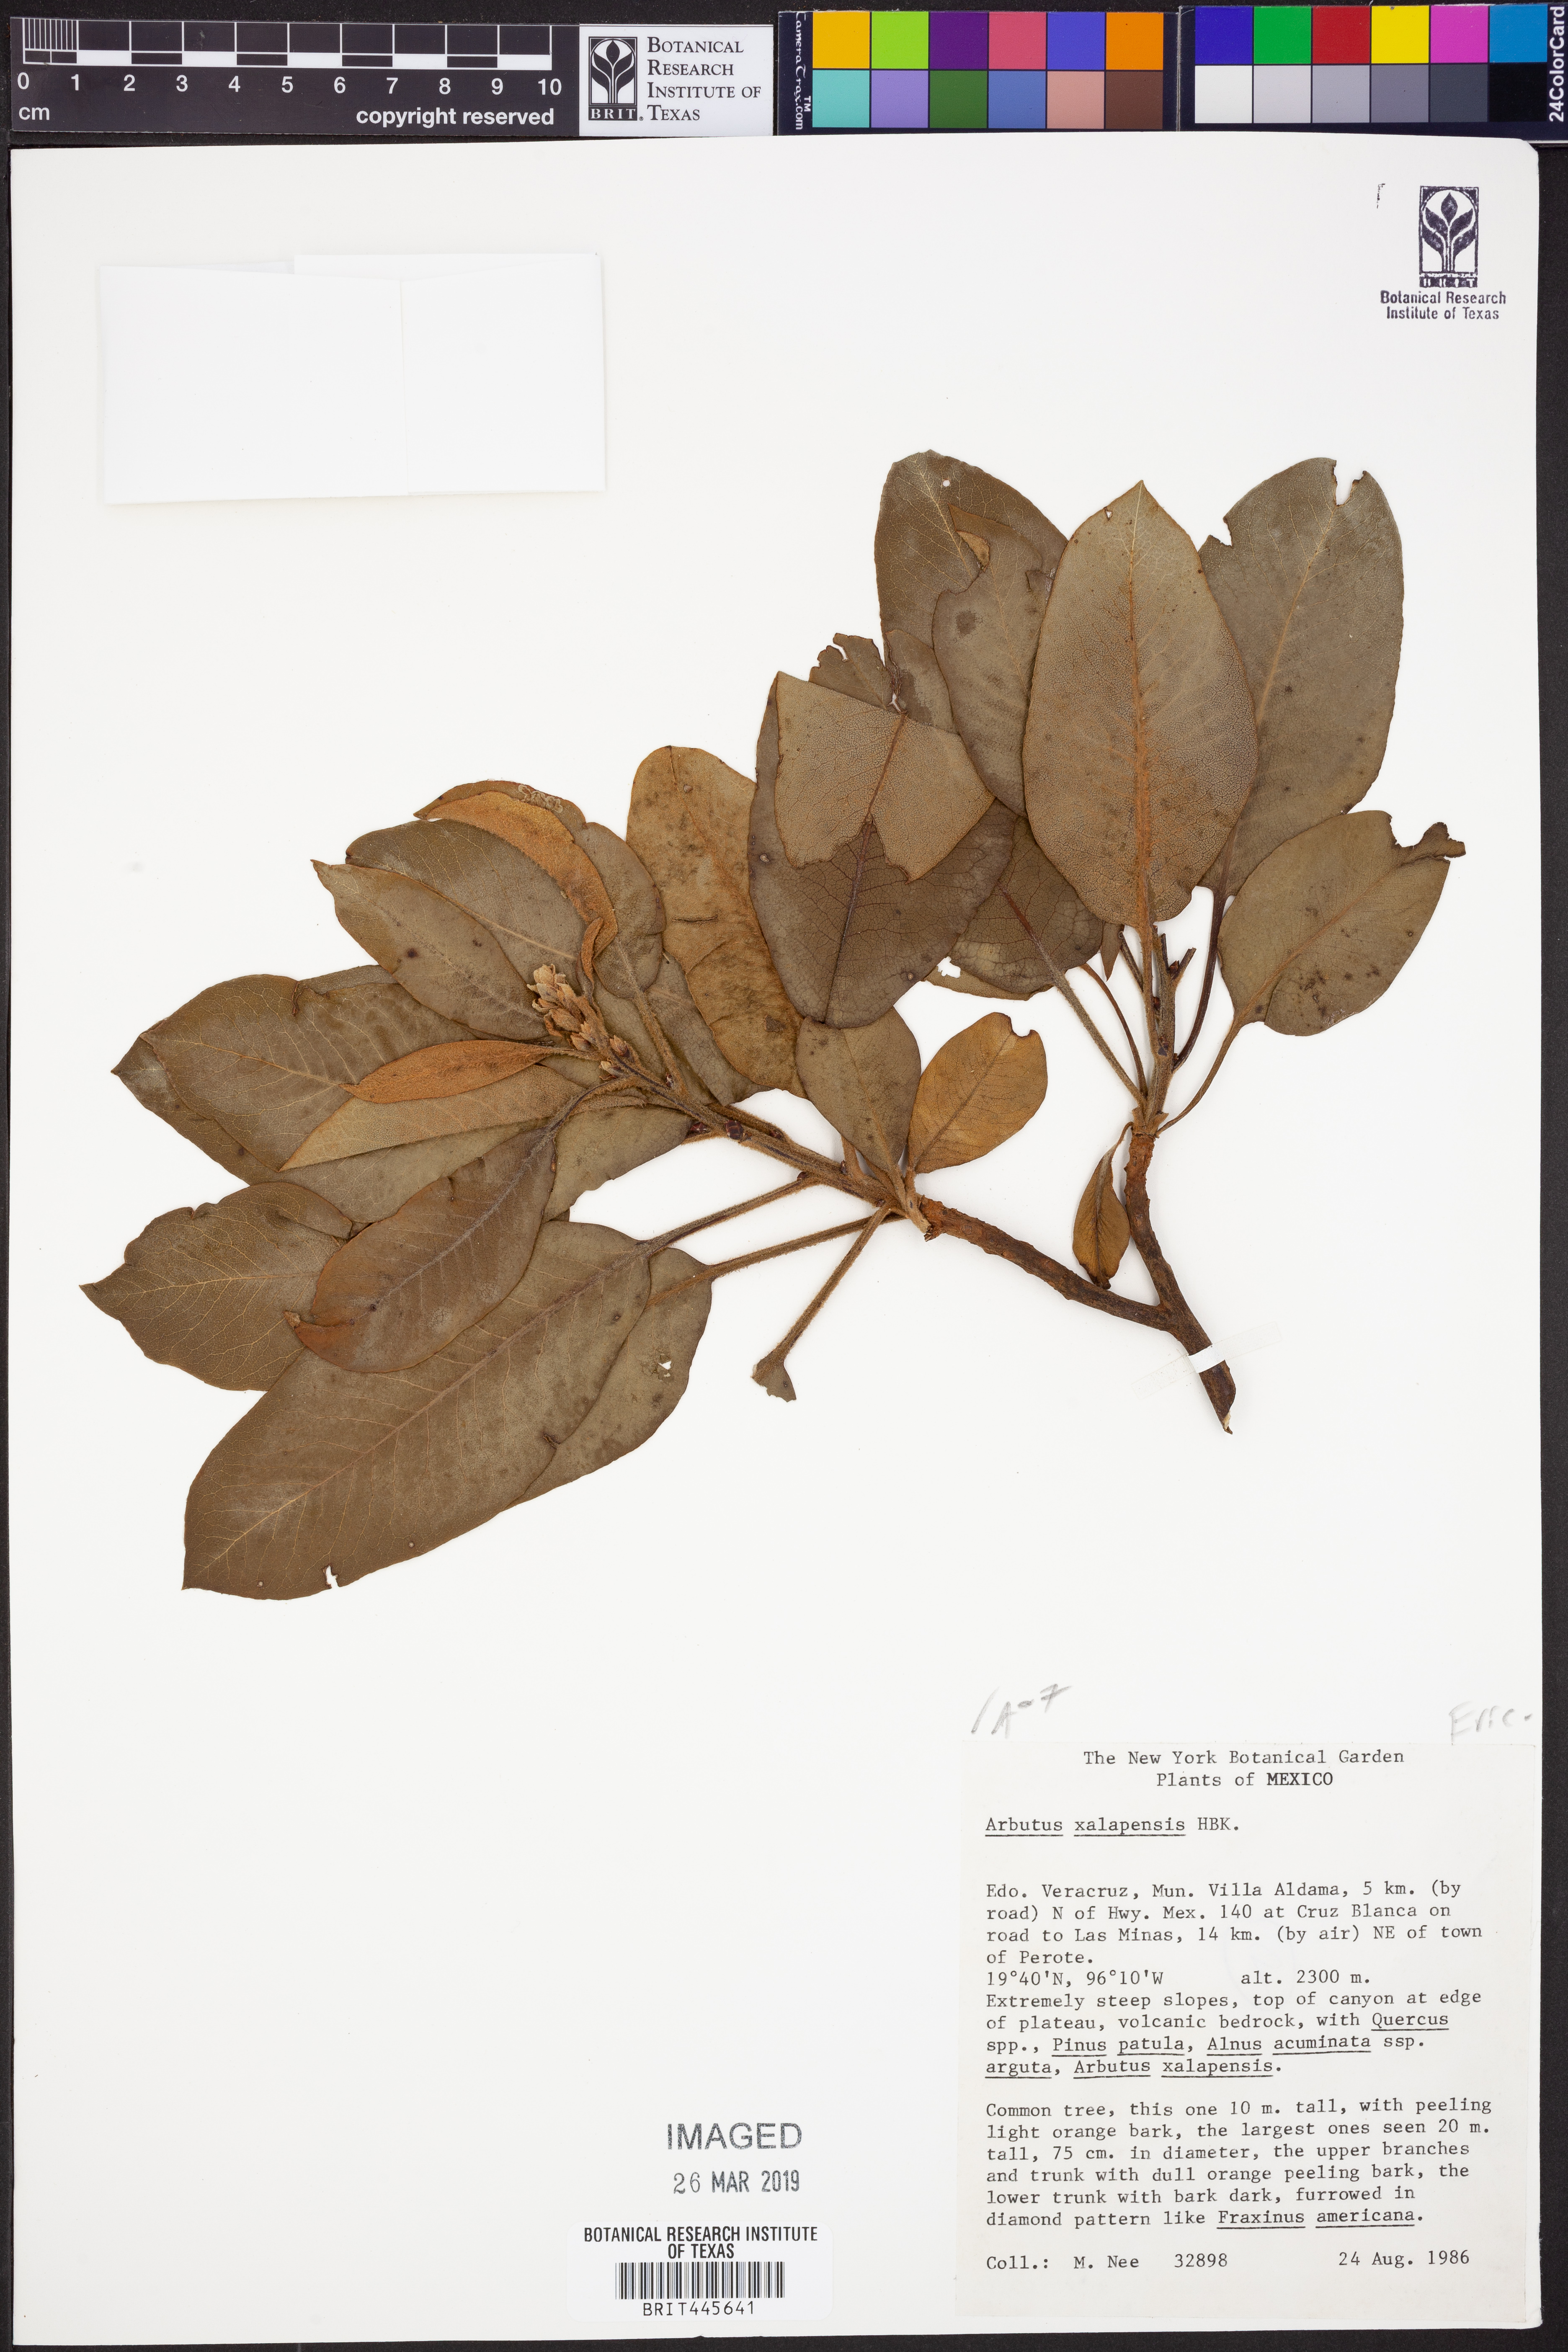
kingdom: Plantae
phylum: Tracheophyta
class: Magnoliopsida
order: Ericales
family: Ericaceae
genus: Arbutus
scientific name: Arbutus xalapensis
